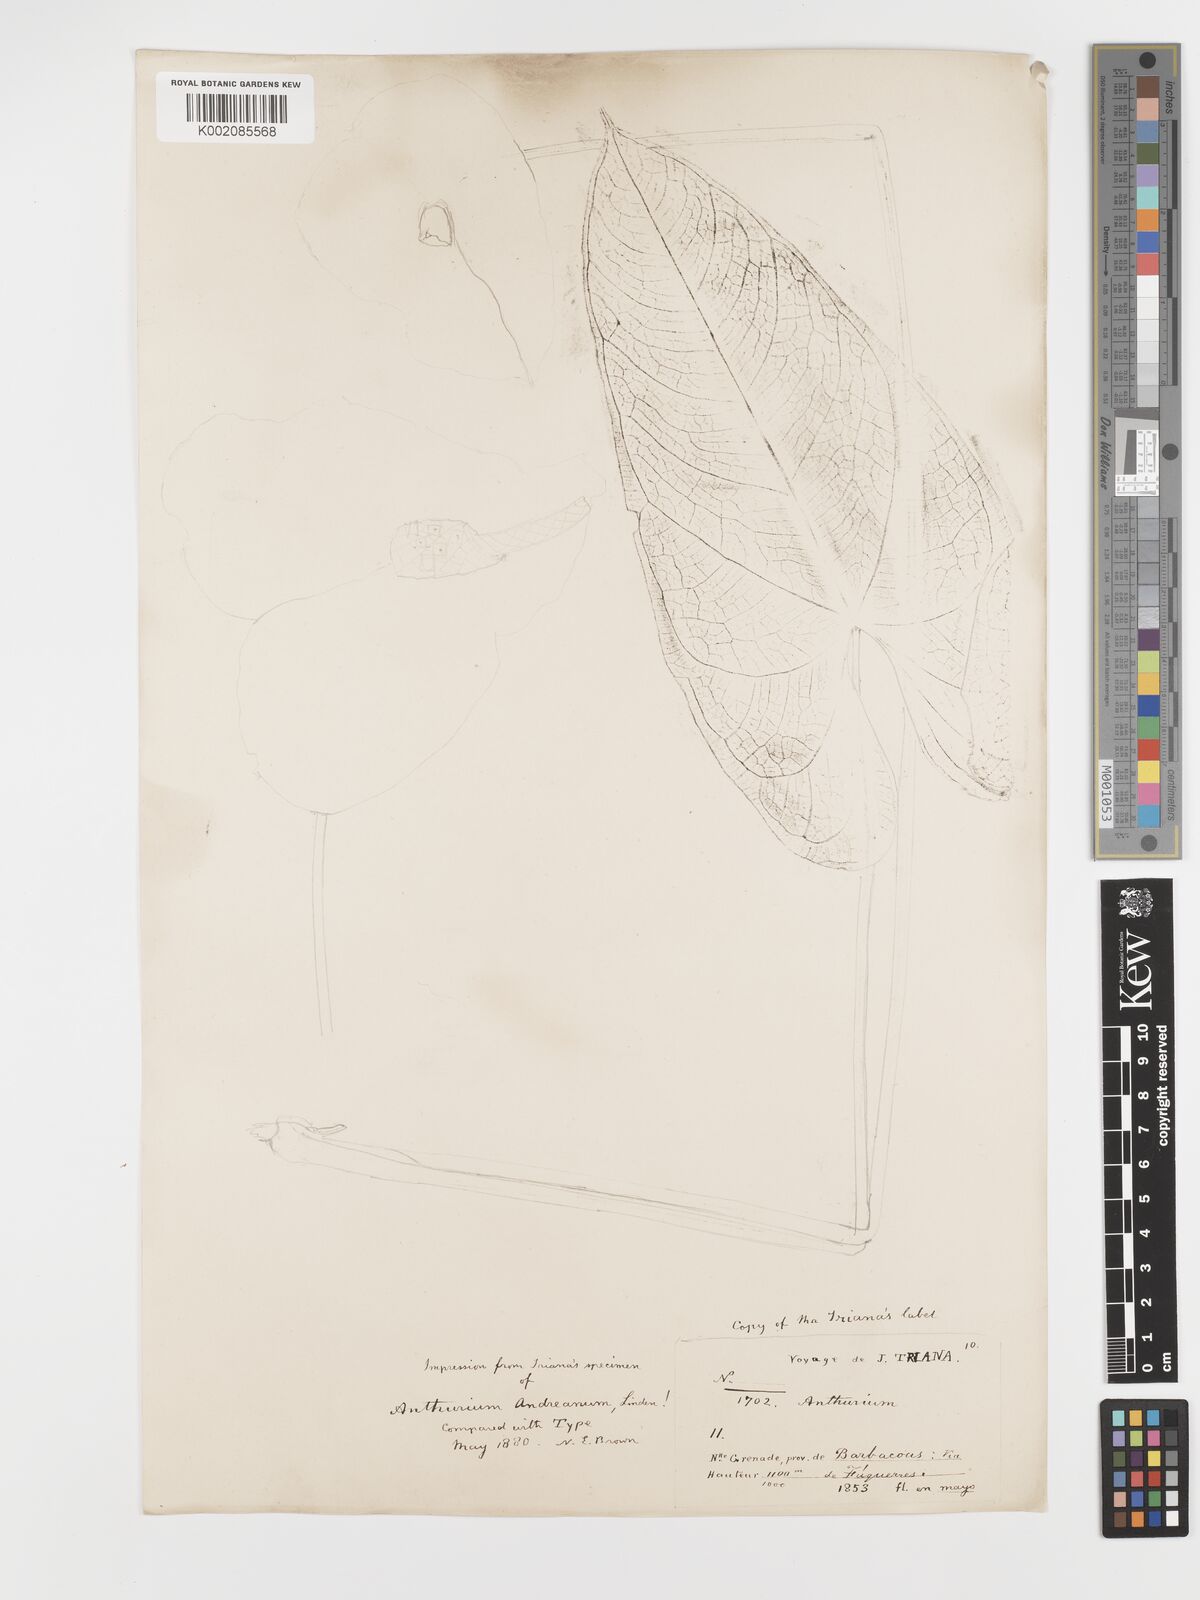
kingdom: Plantae
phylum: Tracheophyta
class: Liliopsida
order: Alismatales
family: Araceae
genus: Anthurium
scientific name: Anthurium andraeanum
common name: Flamingo-flower
